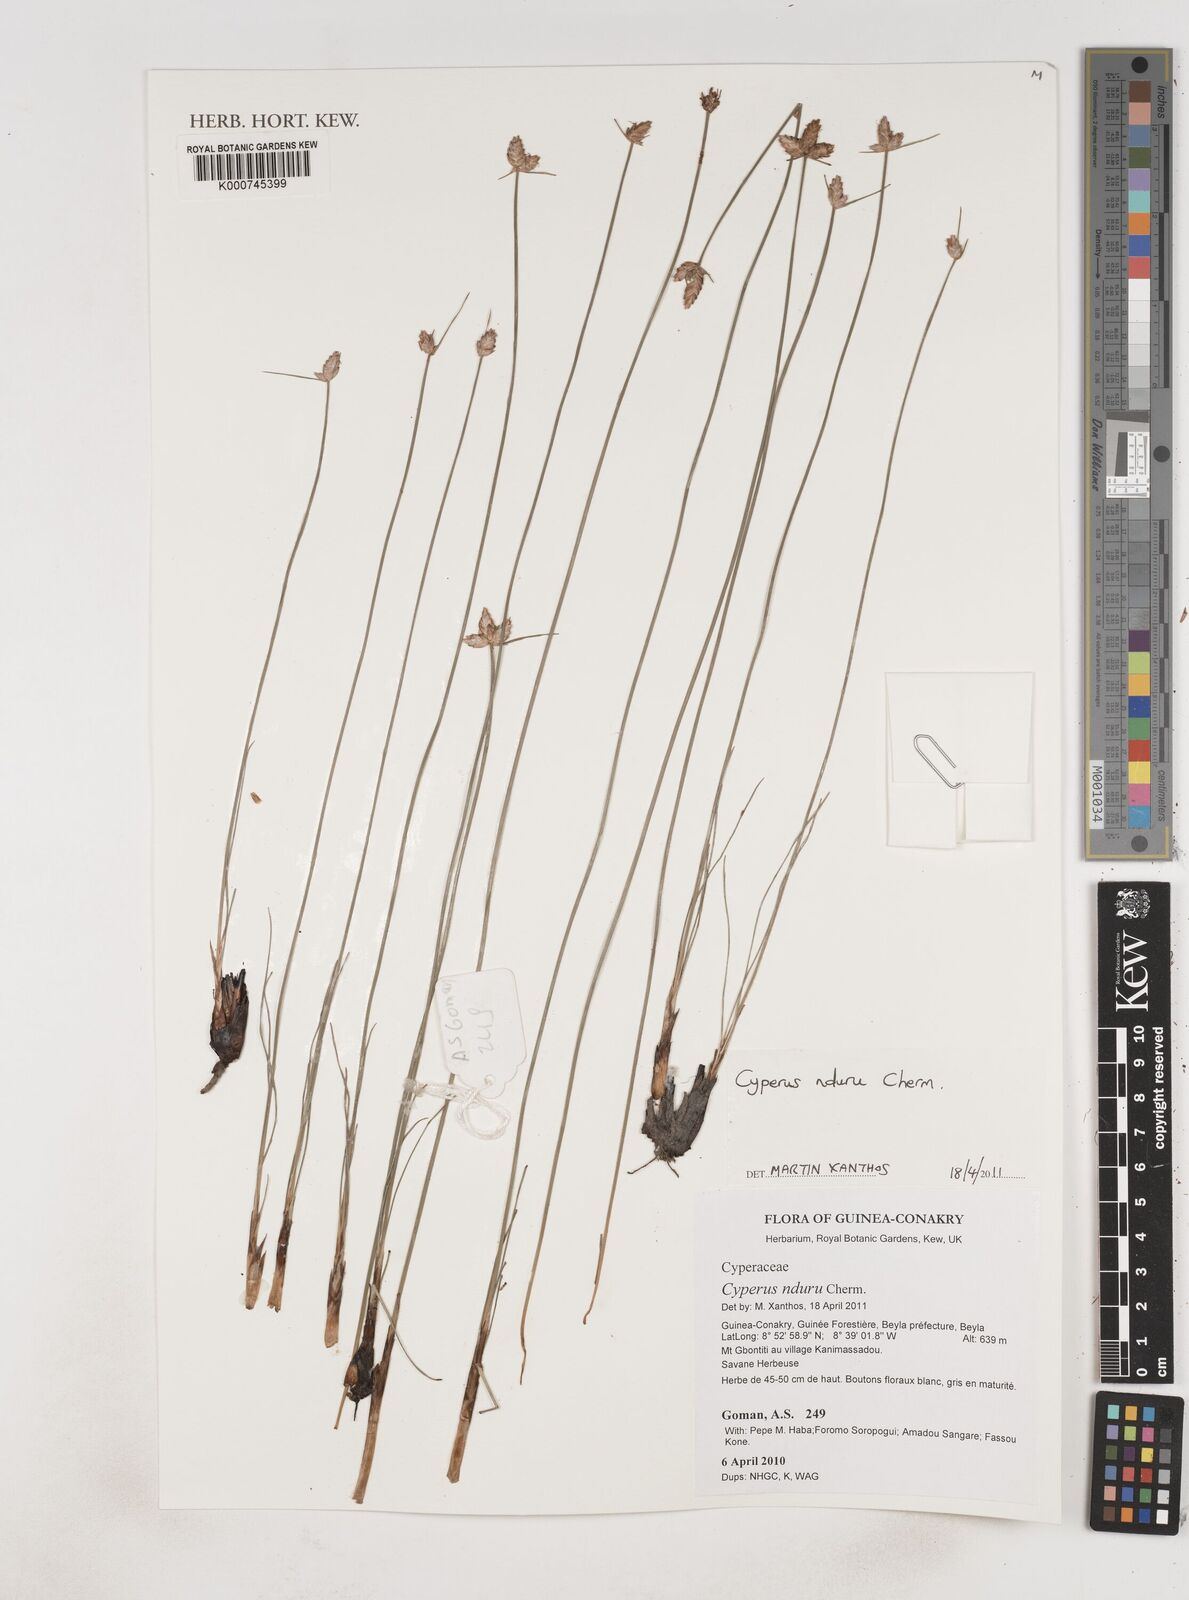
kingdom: Plantae
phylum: Tracheophyta
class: Liliopsida
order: Poales
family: Cyperaceae
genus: Cyperus
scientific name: Cyperus nduru
